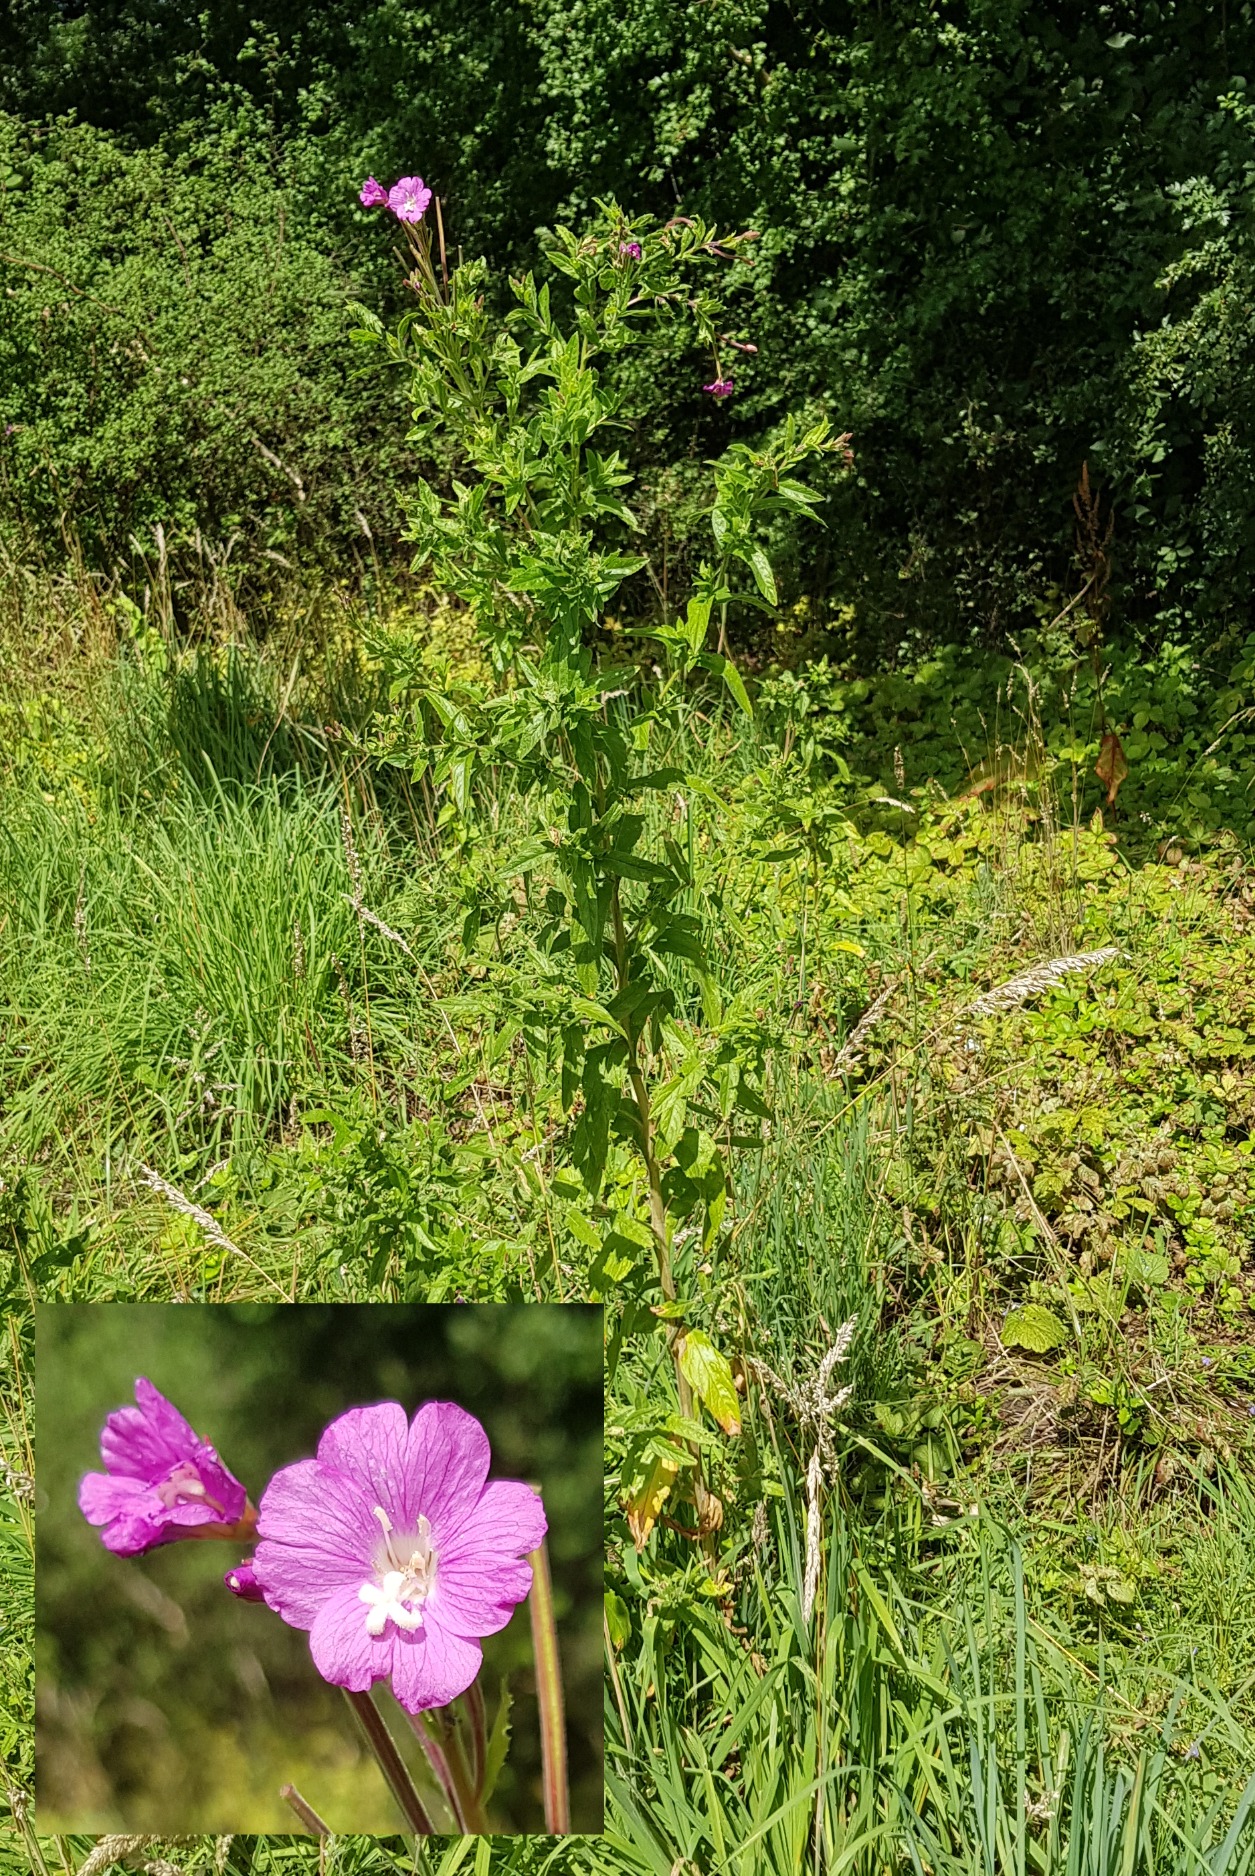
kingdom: Plantae
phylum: Tracheophyta
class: Magnoliopsida
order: Myrtales
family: Onagraceae
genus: Epilobium
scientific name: Epilobium hirsutum
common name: Lådden dueurt
